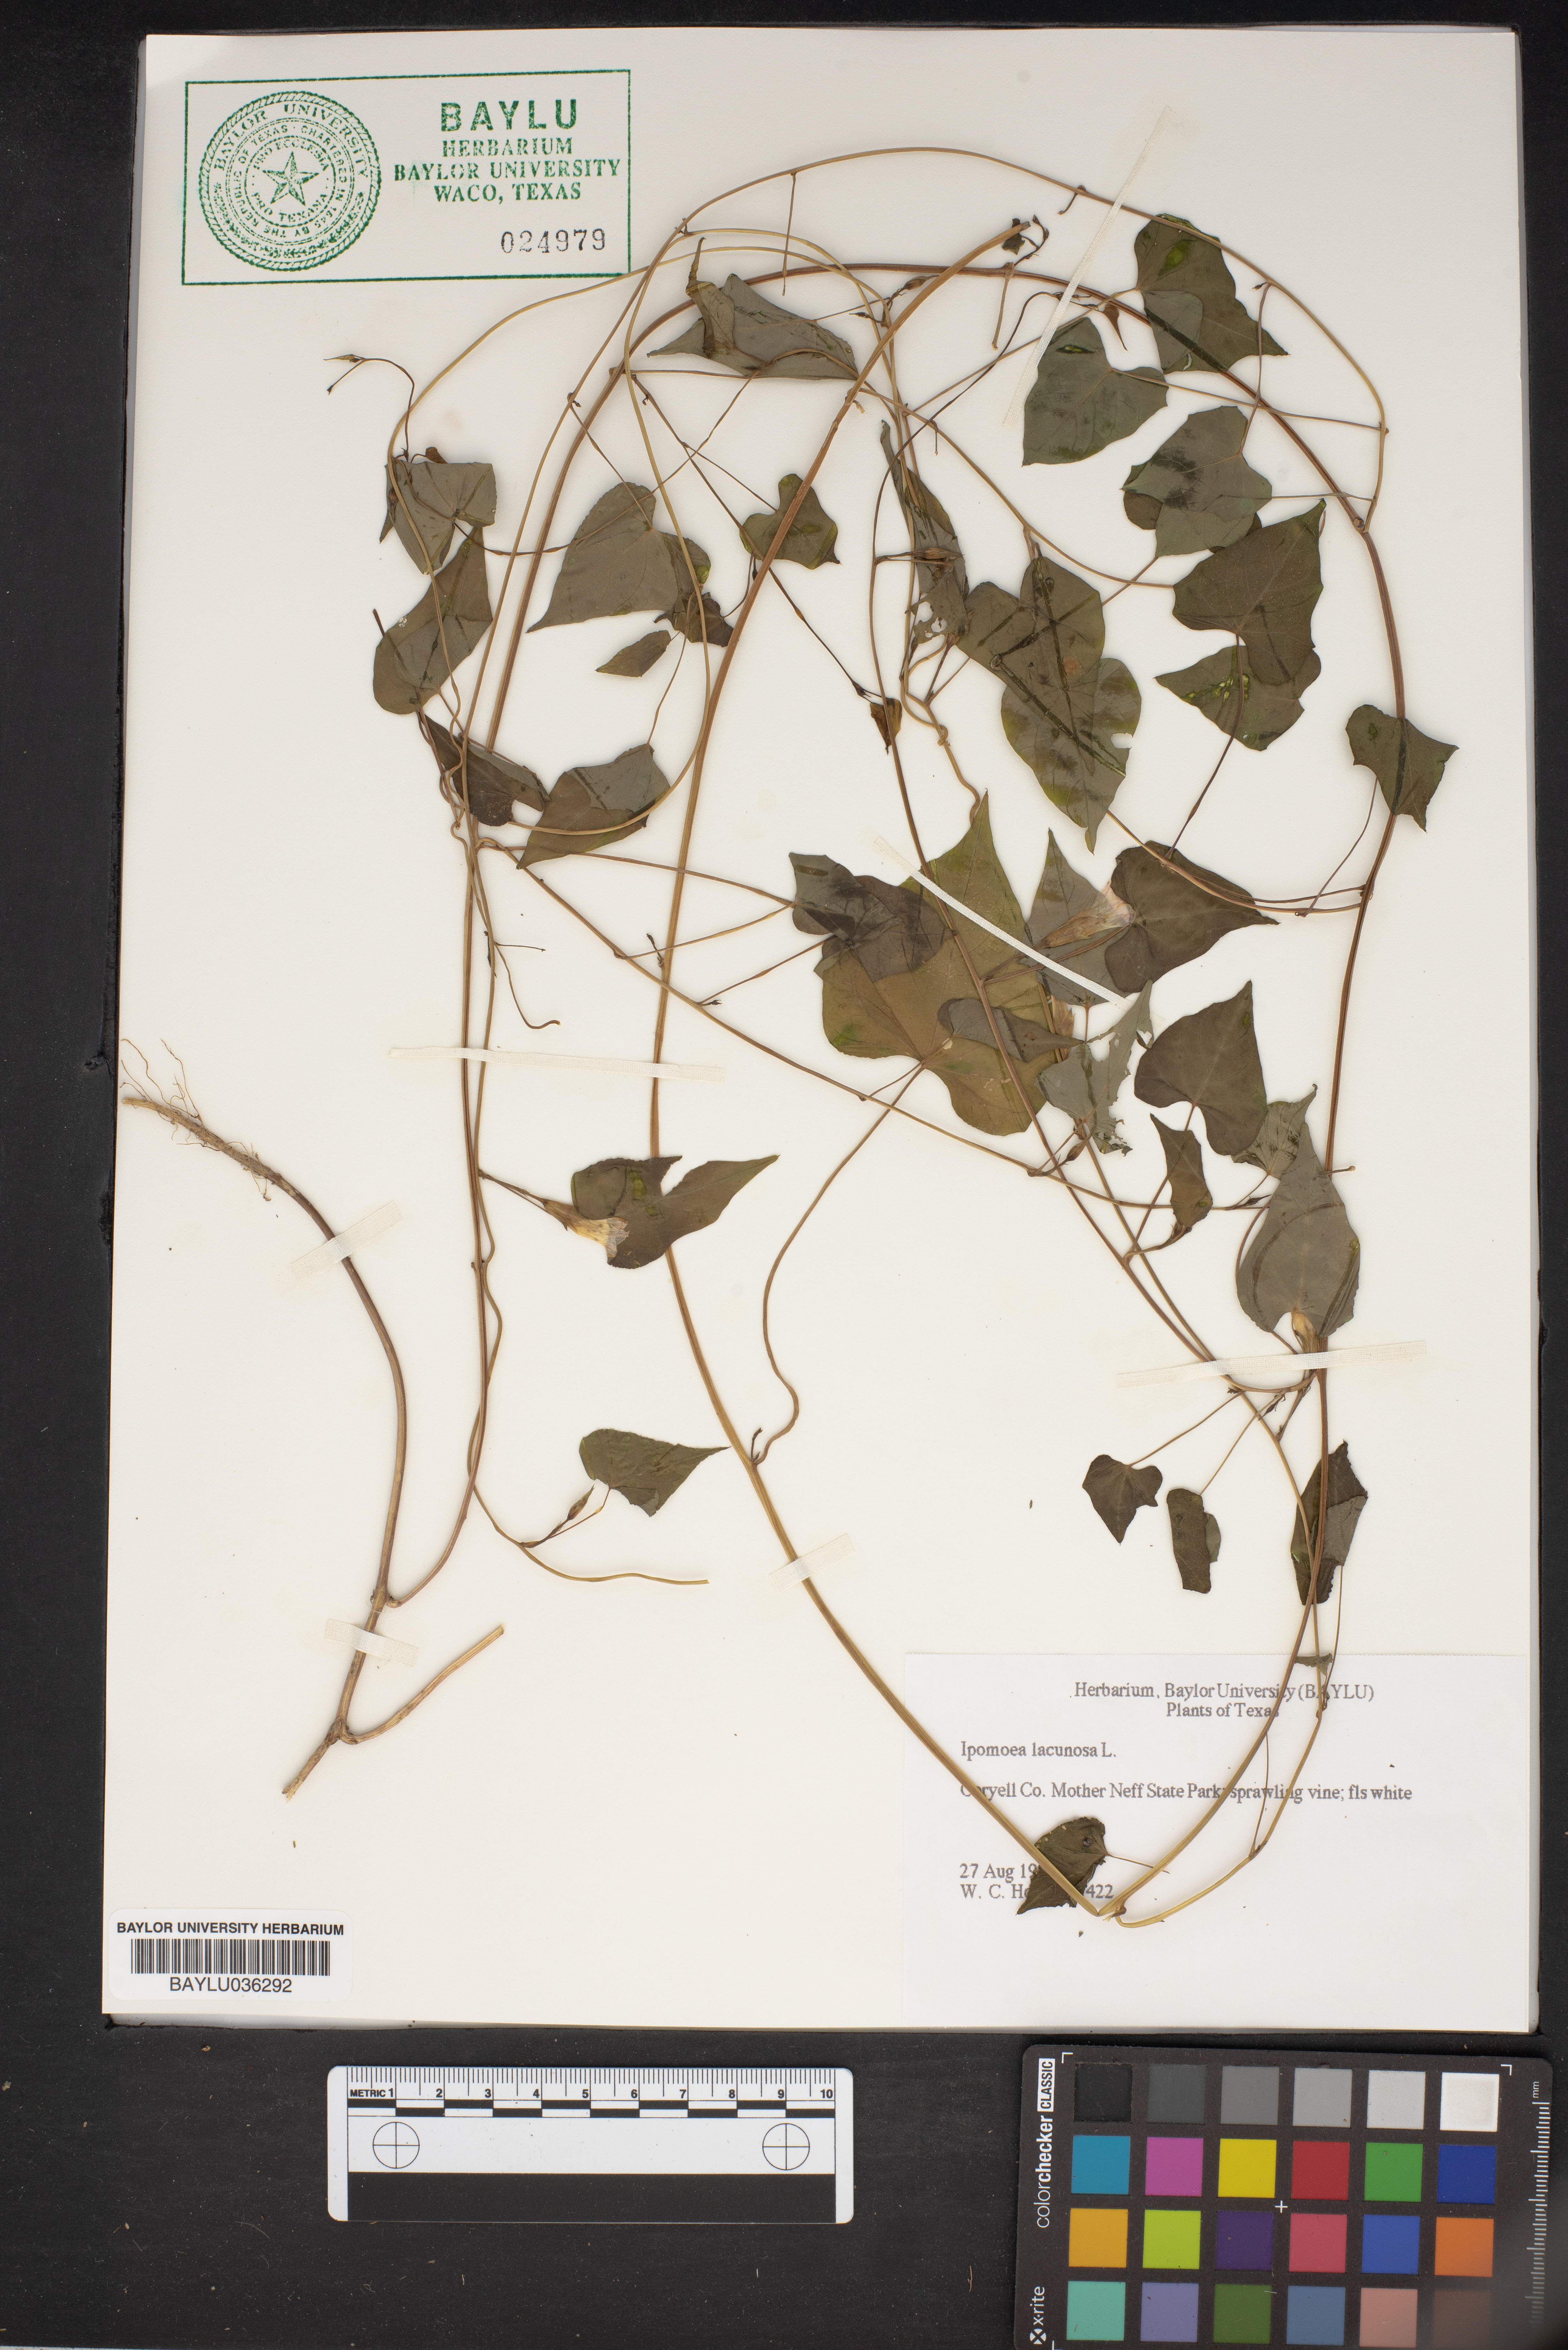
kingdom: Plantae
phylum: Tracheophyta
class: Magnoliopsida
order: Solanales
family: Convolvulaceae
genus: Ipomoea
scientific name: Ipomoea lacunosa
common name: White morning-glory
